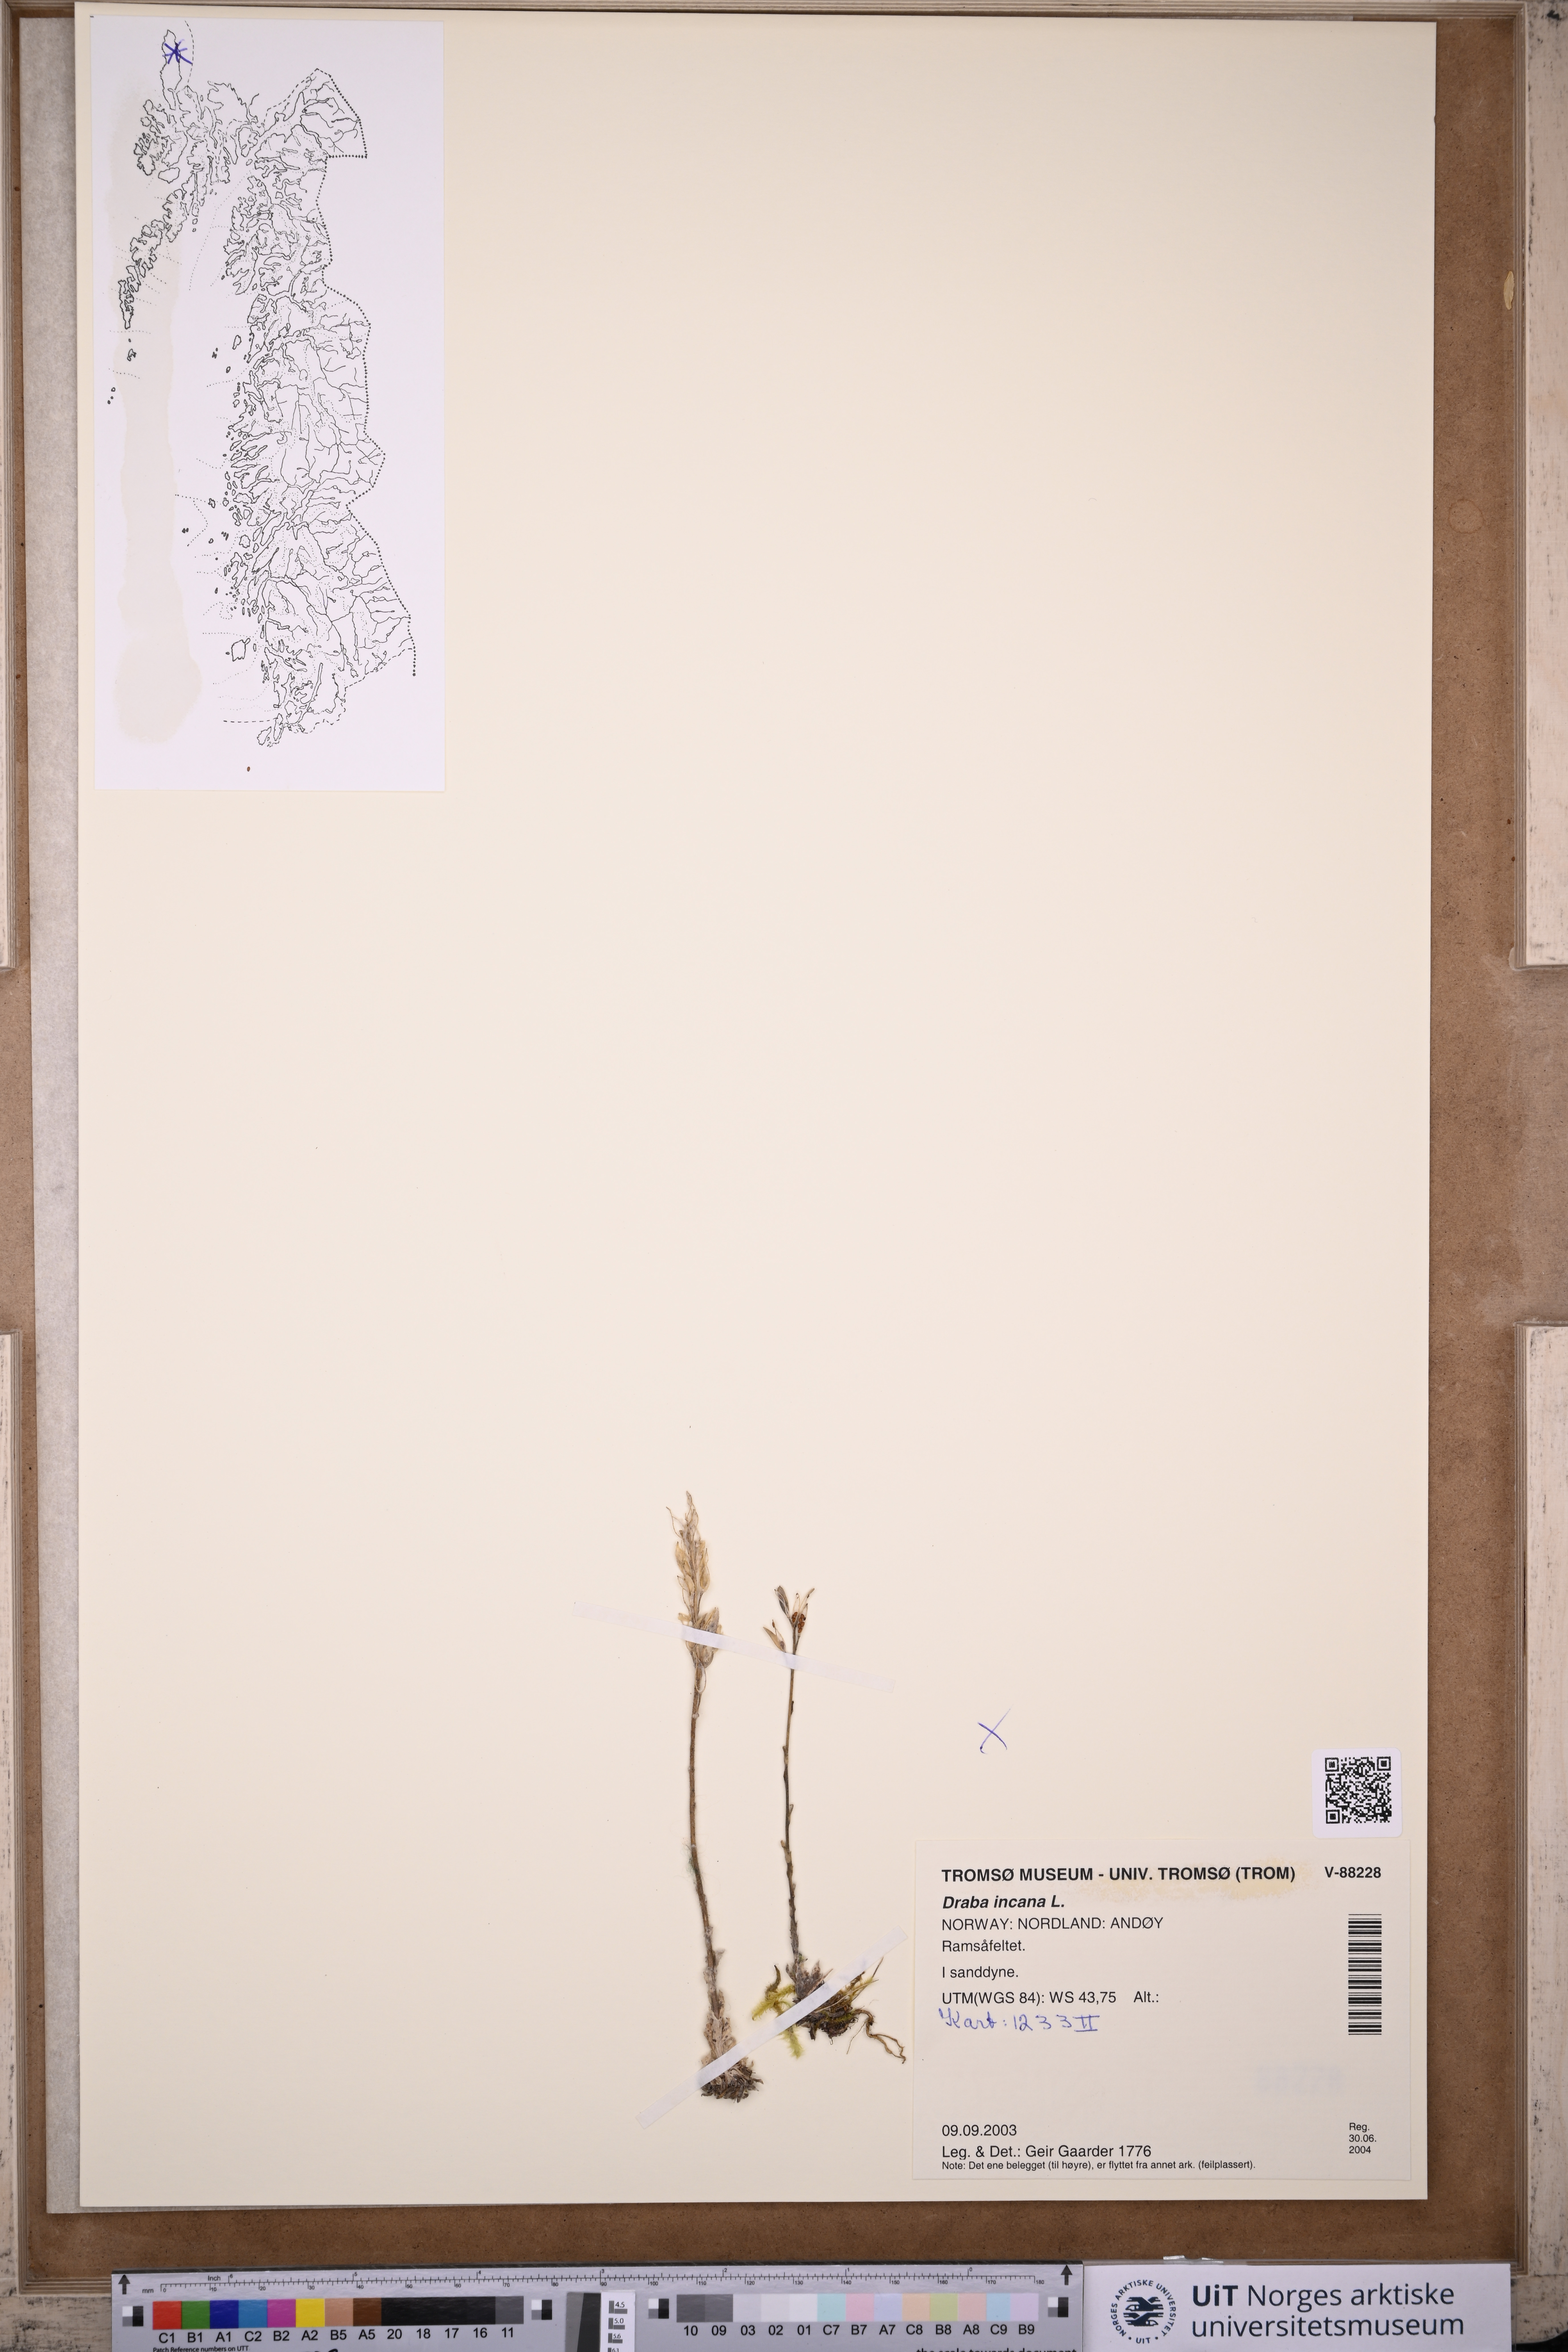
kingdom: Plantae
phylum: Tracheophyta
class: Magnoliopsida
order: Brassicales
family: Brassicaceae
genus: Draba
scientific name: Draba incana
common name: Hoary whitlow-grass
